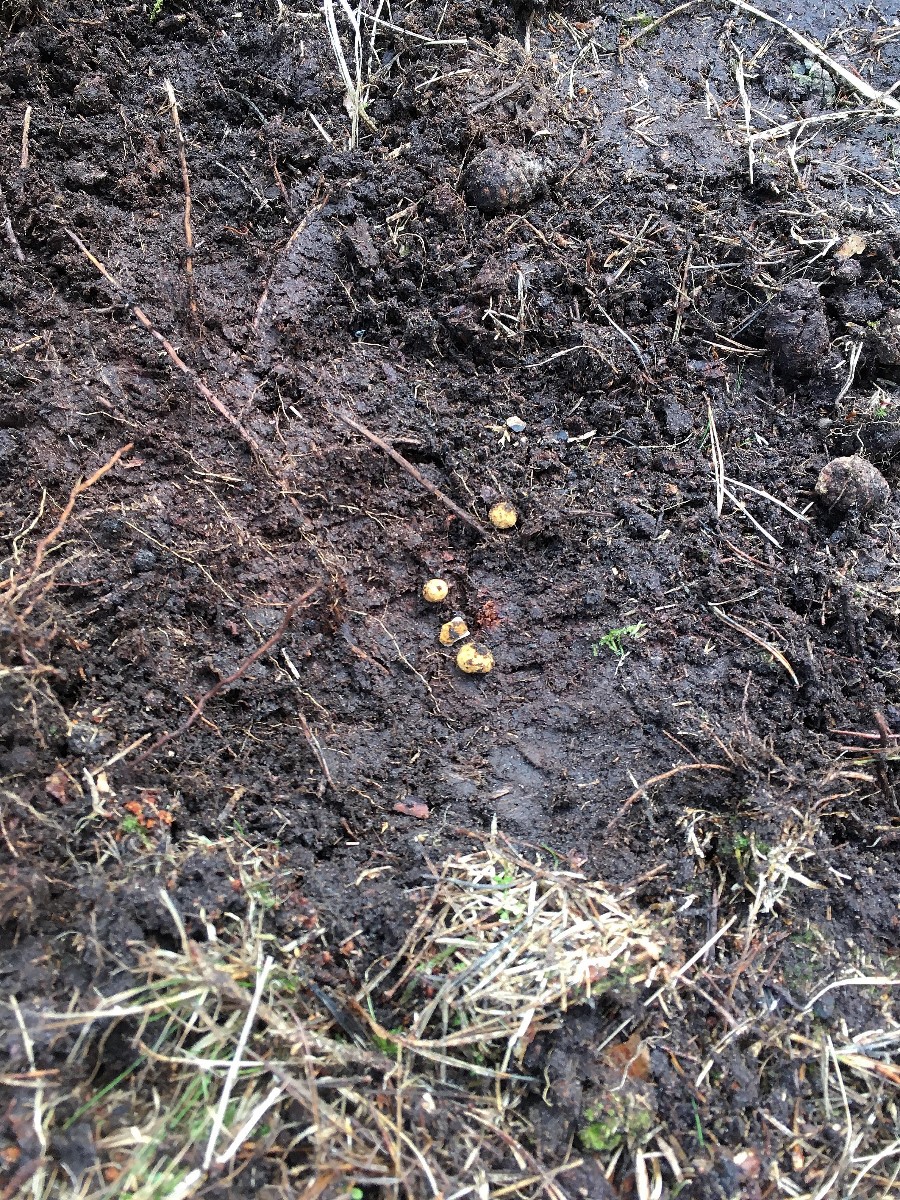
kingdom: Fungi
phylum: Ascomycota
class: Eurotiomycetes
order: Eurotiales
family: Elaphomycetaceae
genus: Elaphomyces
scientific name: Elaphomyces granulatus
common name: grynet hjortetrøffel
